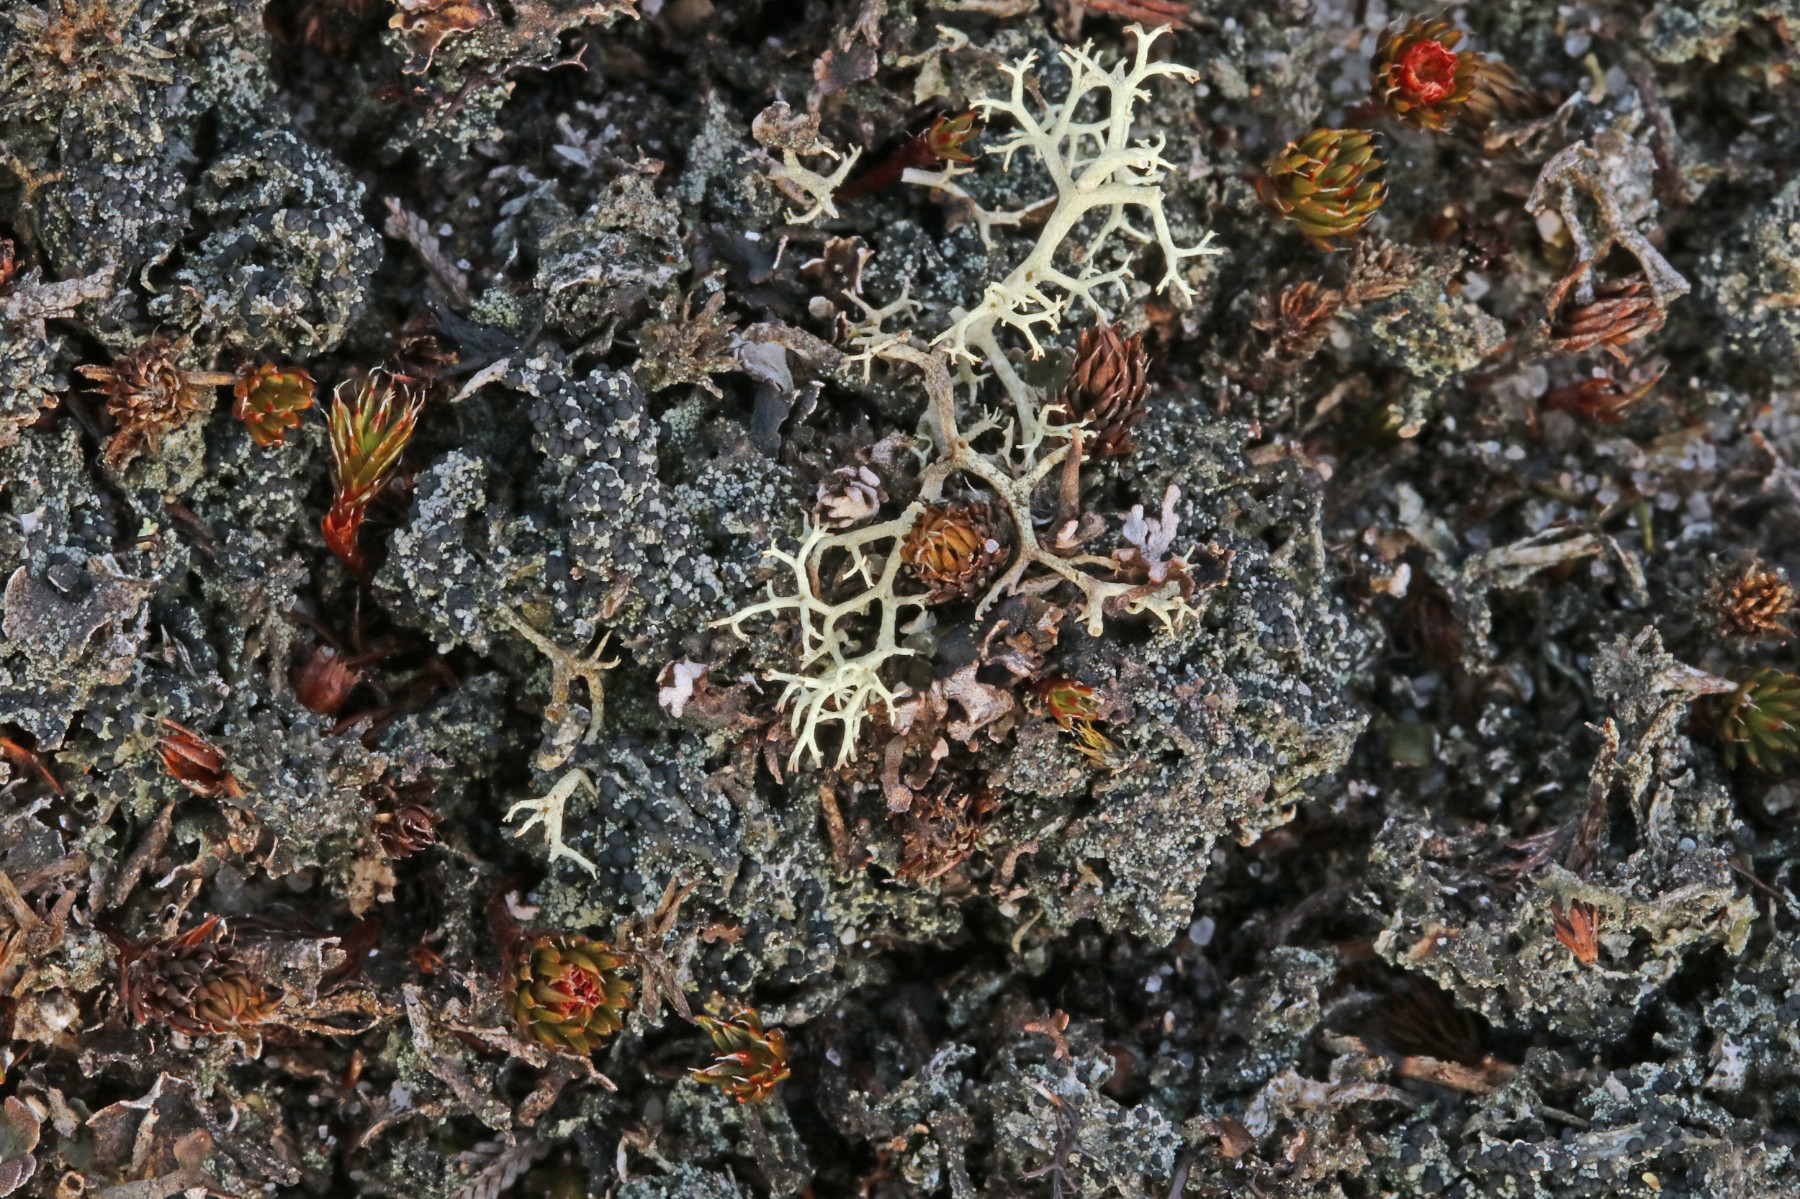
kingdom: Fungi
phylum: Ascomycota
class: Lecanoromycetes
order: Lecanorales
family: Byssolomataceae
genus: Micarea
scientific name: Micarea lignaria
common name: tørve-knaplav
